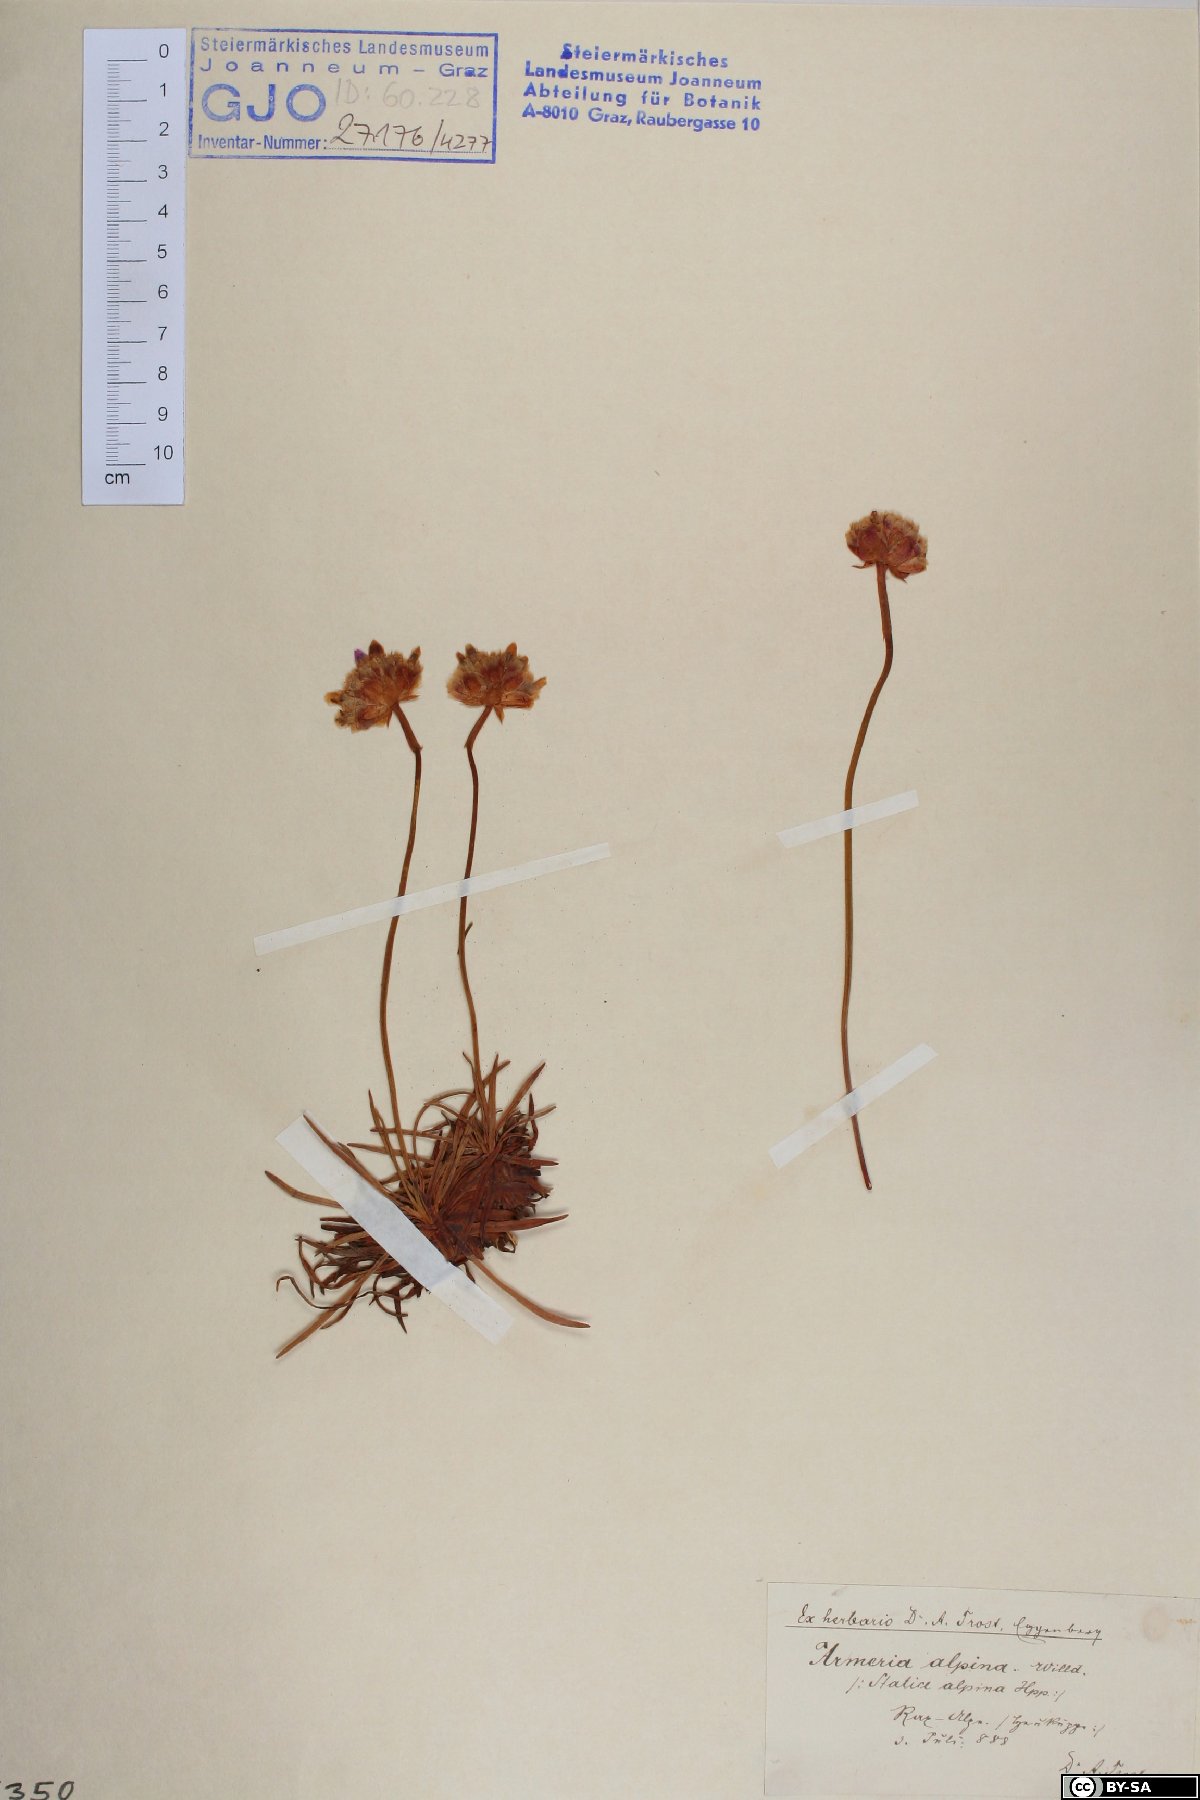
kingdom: Plantae
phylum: Tracheophyta
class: Magnoliopsida
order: Caryophyllales
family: Plumbaginaceae
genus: Armeria
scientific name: Armeria alpina
